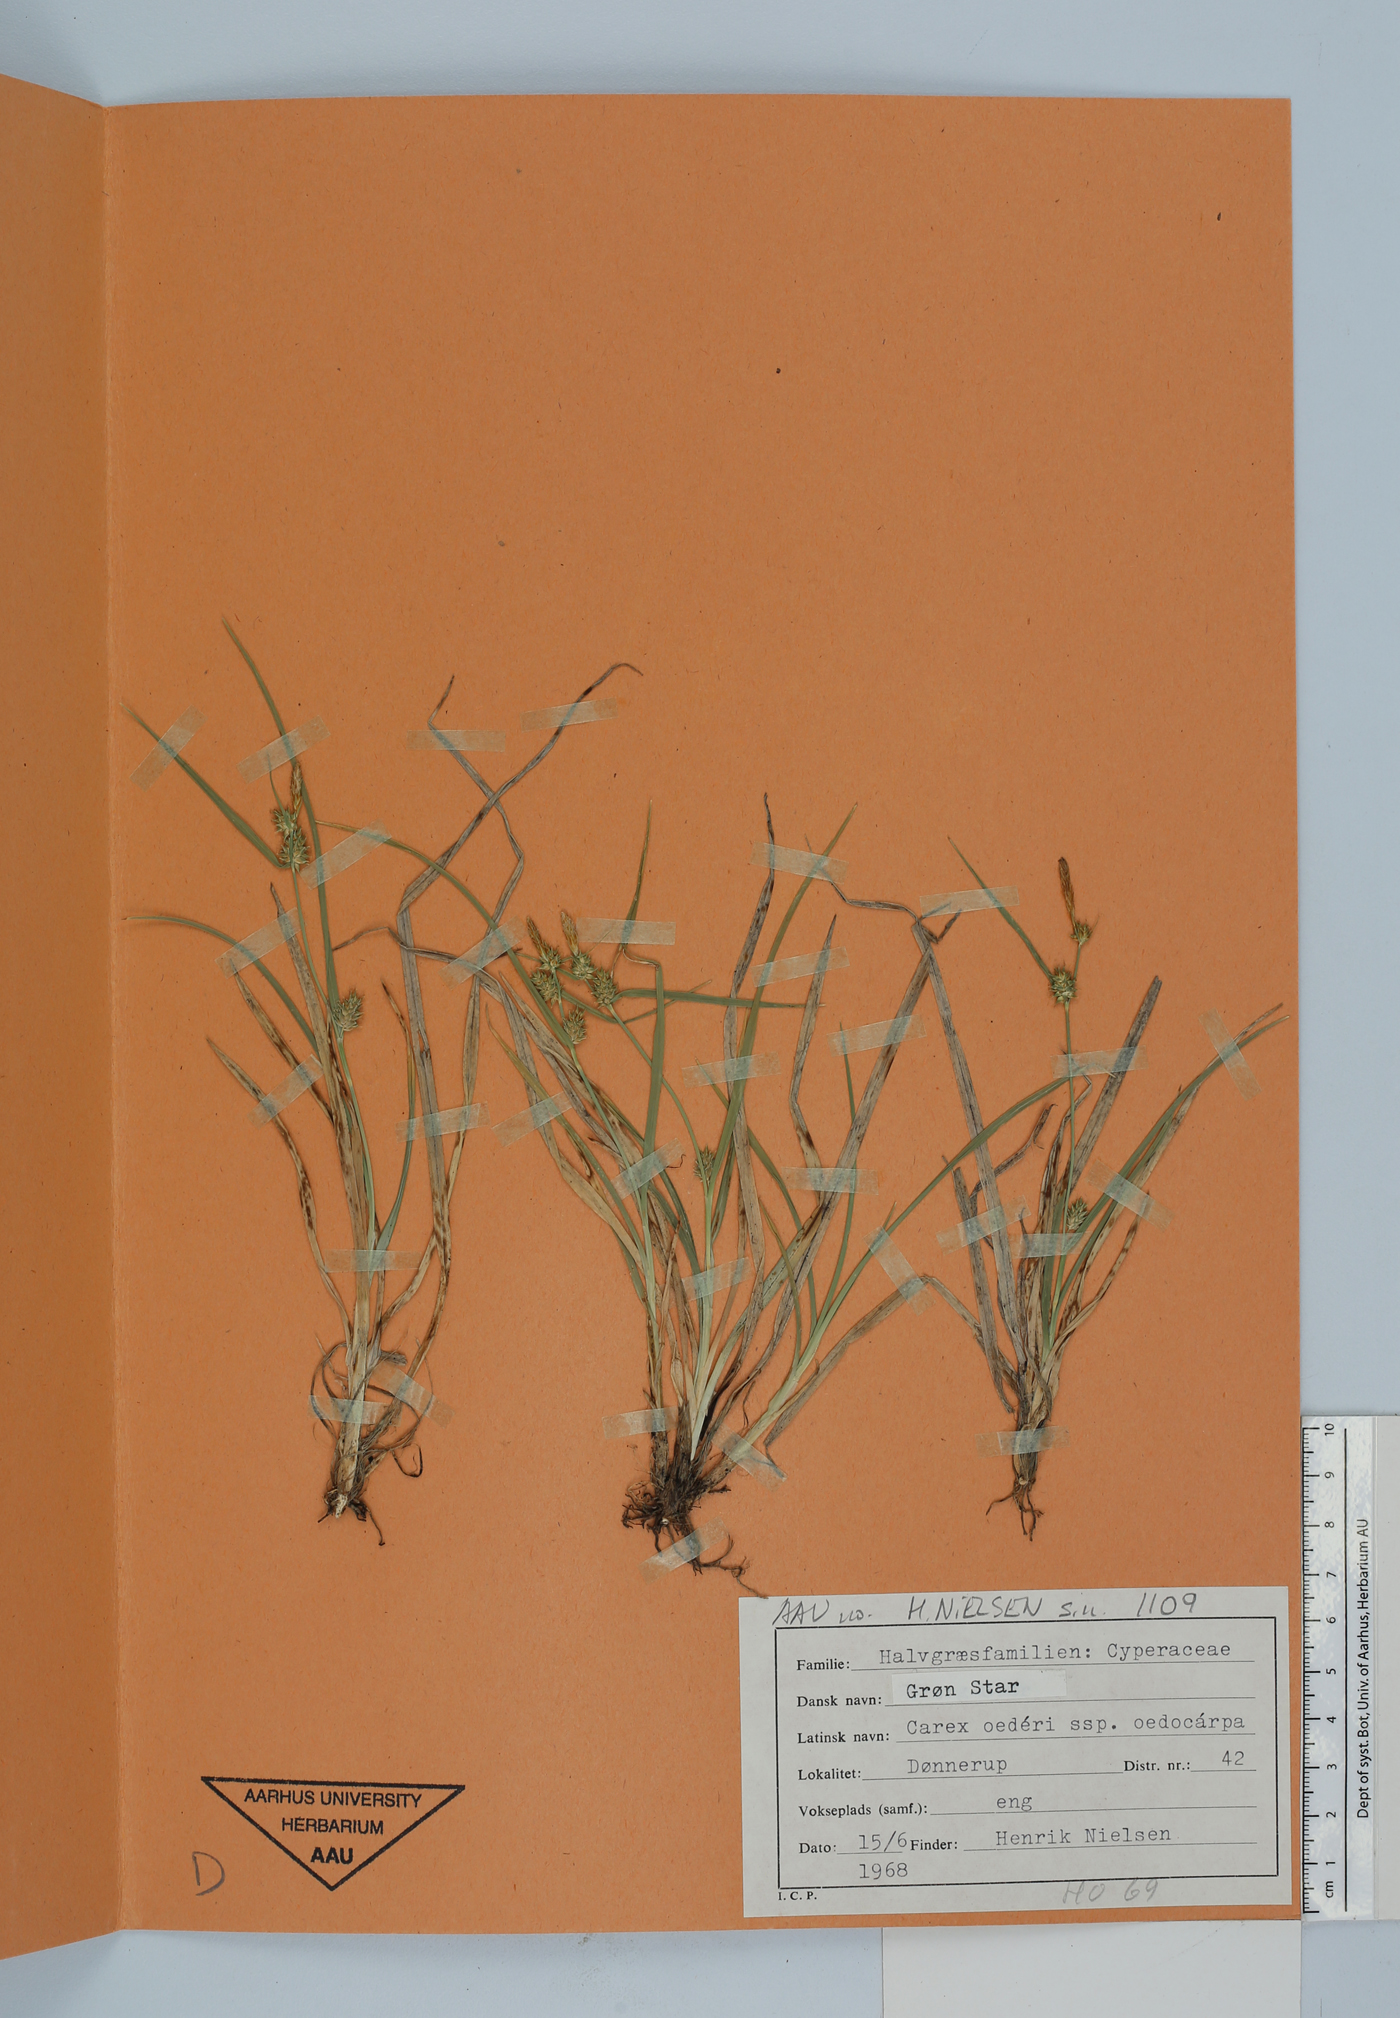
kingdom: Plantae
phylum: Tracheophyta
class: Liliopsida
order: Poales
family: Cyperaceae
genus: Carex
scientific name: Carex oederi
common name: Common & small-fruited yellow-sedge
